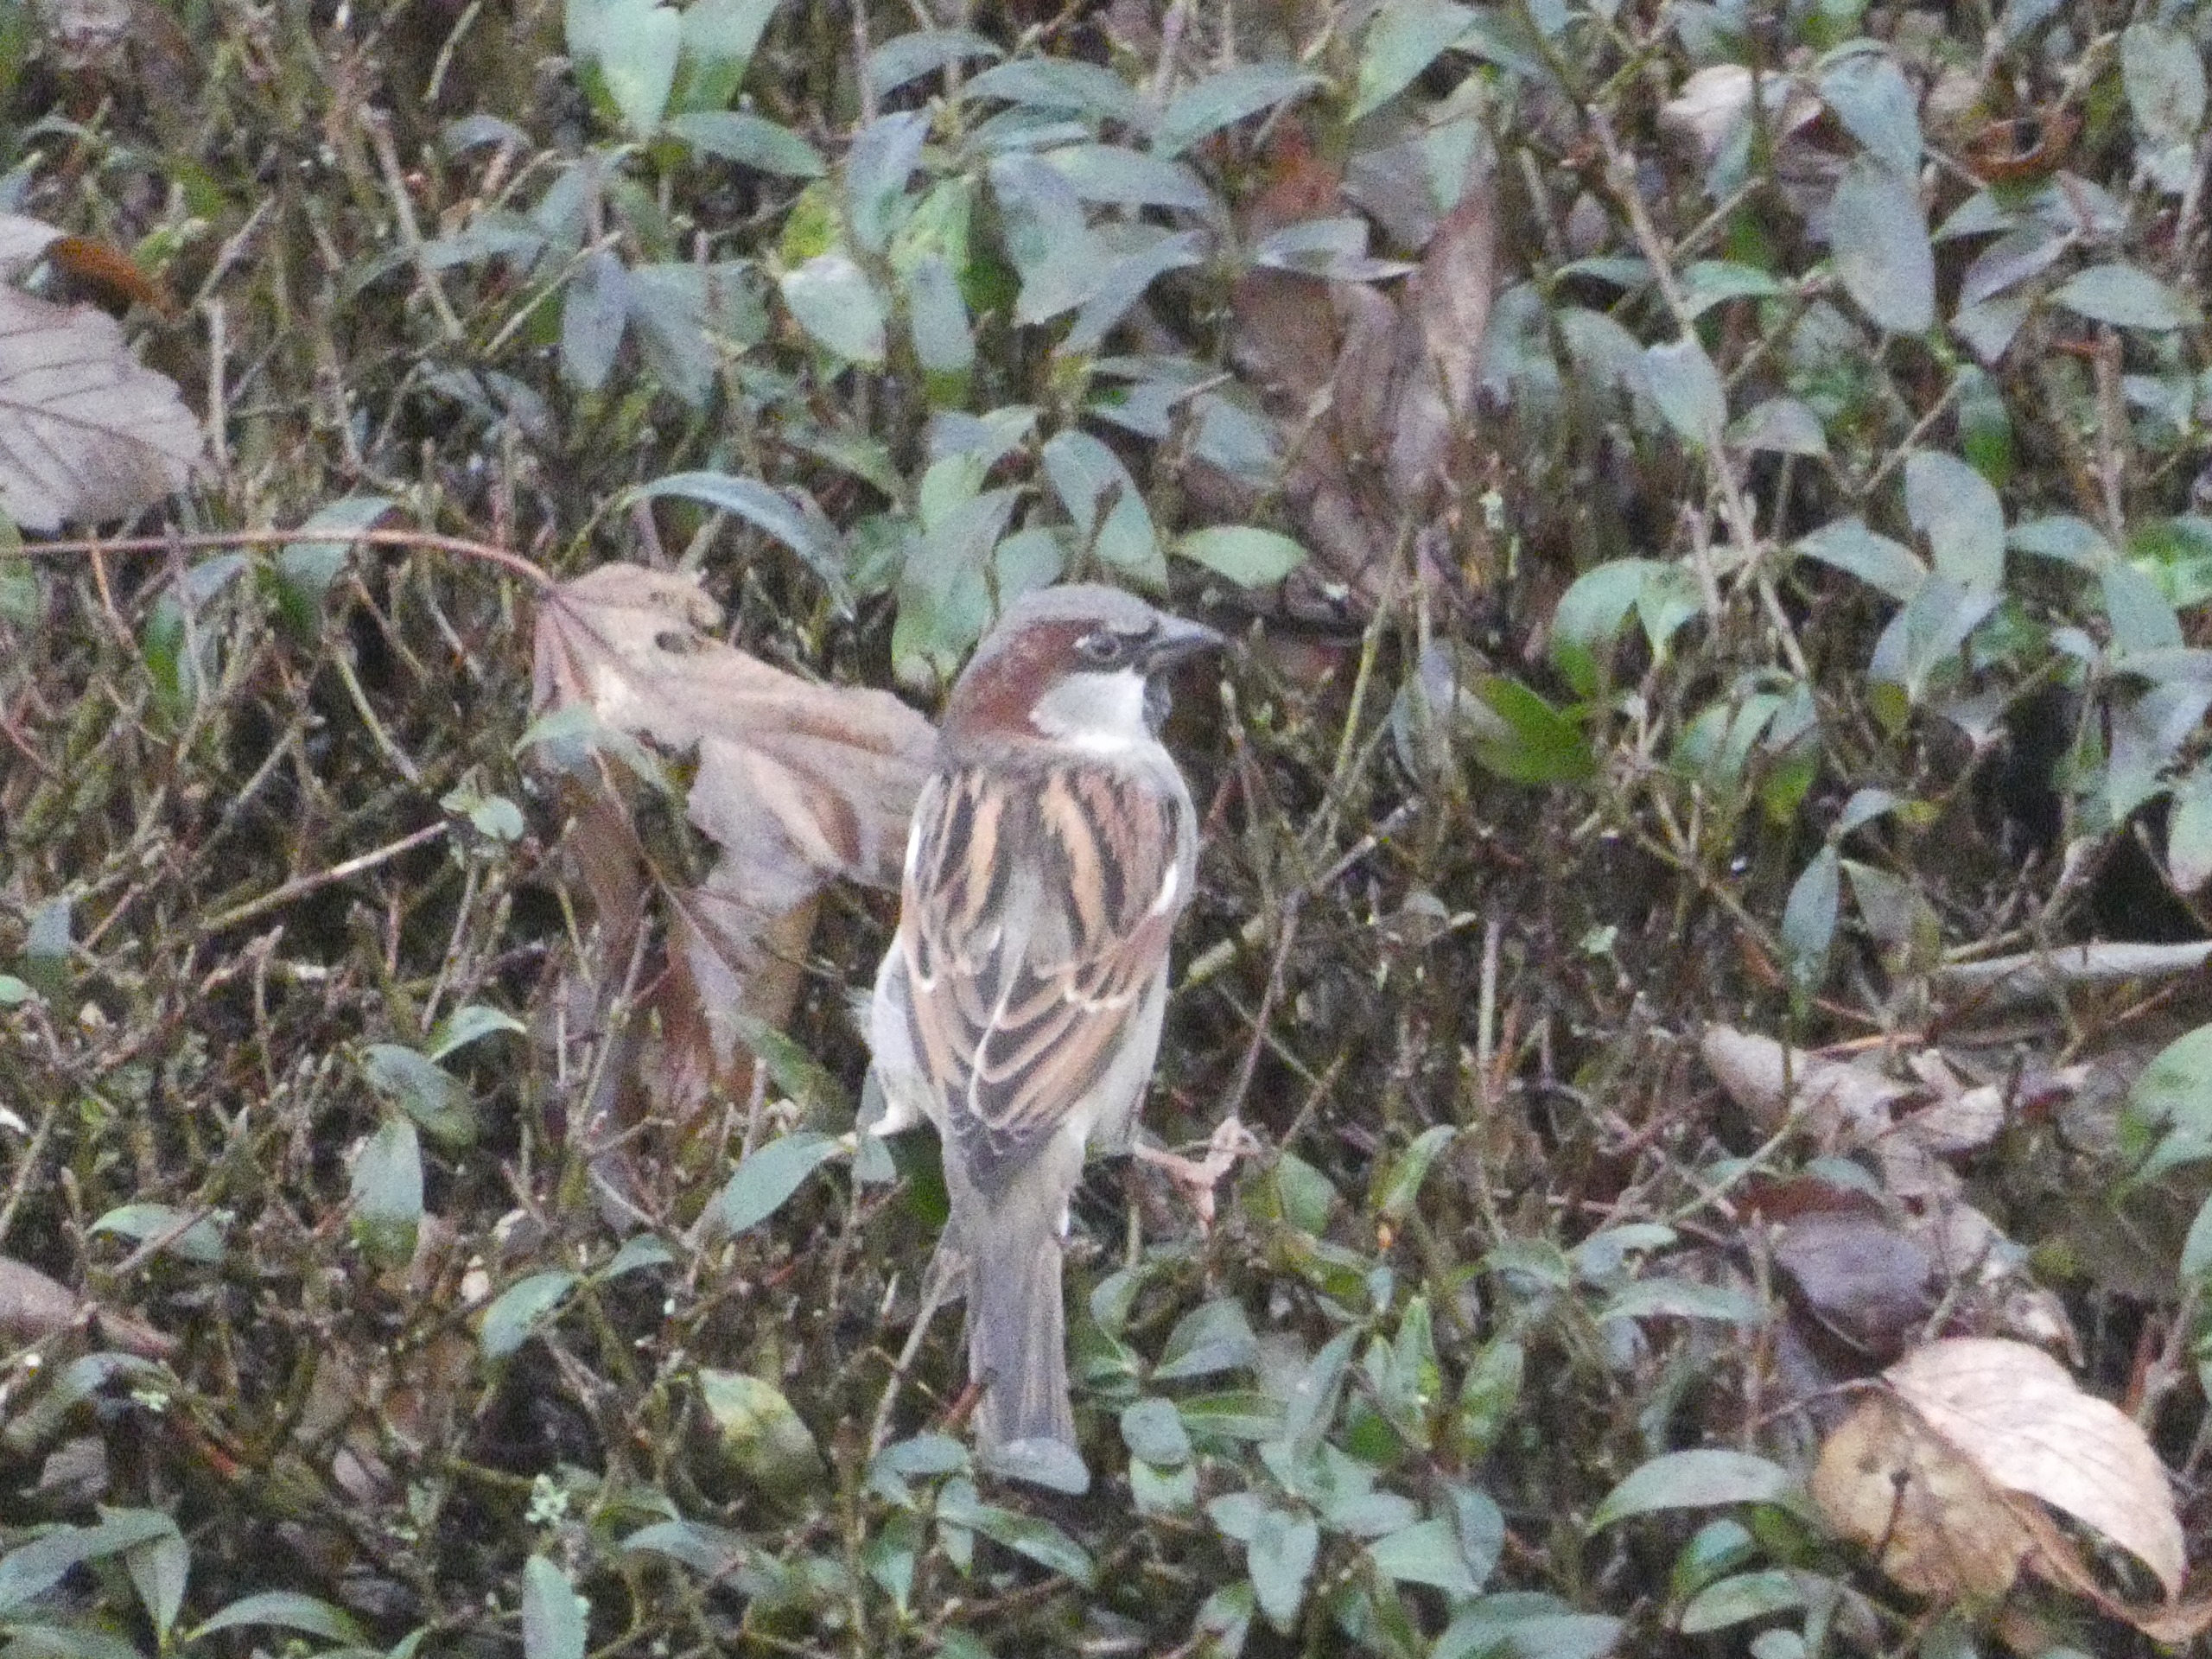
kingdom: Animalia
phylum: Chordata
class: Aves
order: Passeriformes
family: Passeridae
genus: Passer
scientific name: Passer domesticus
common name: Gråspurv
